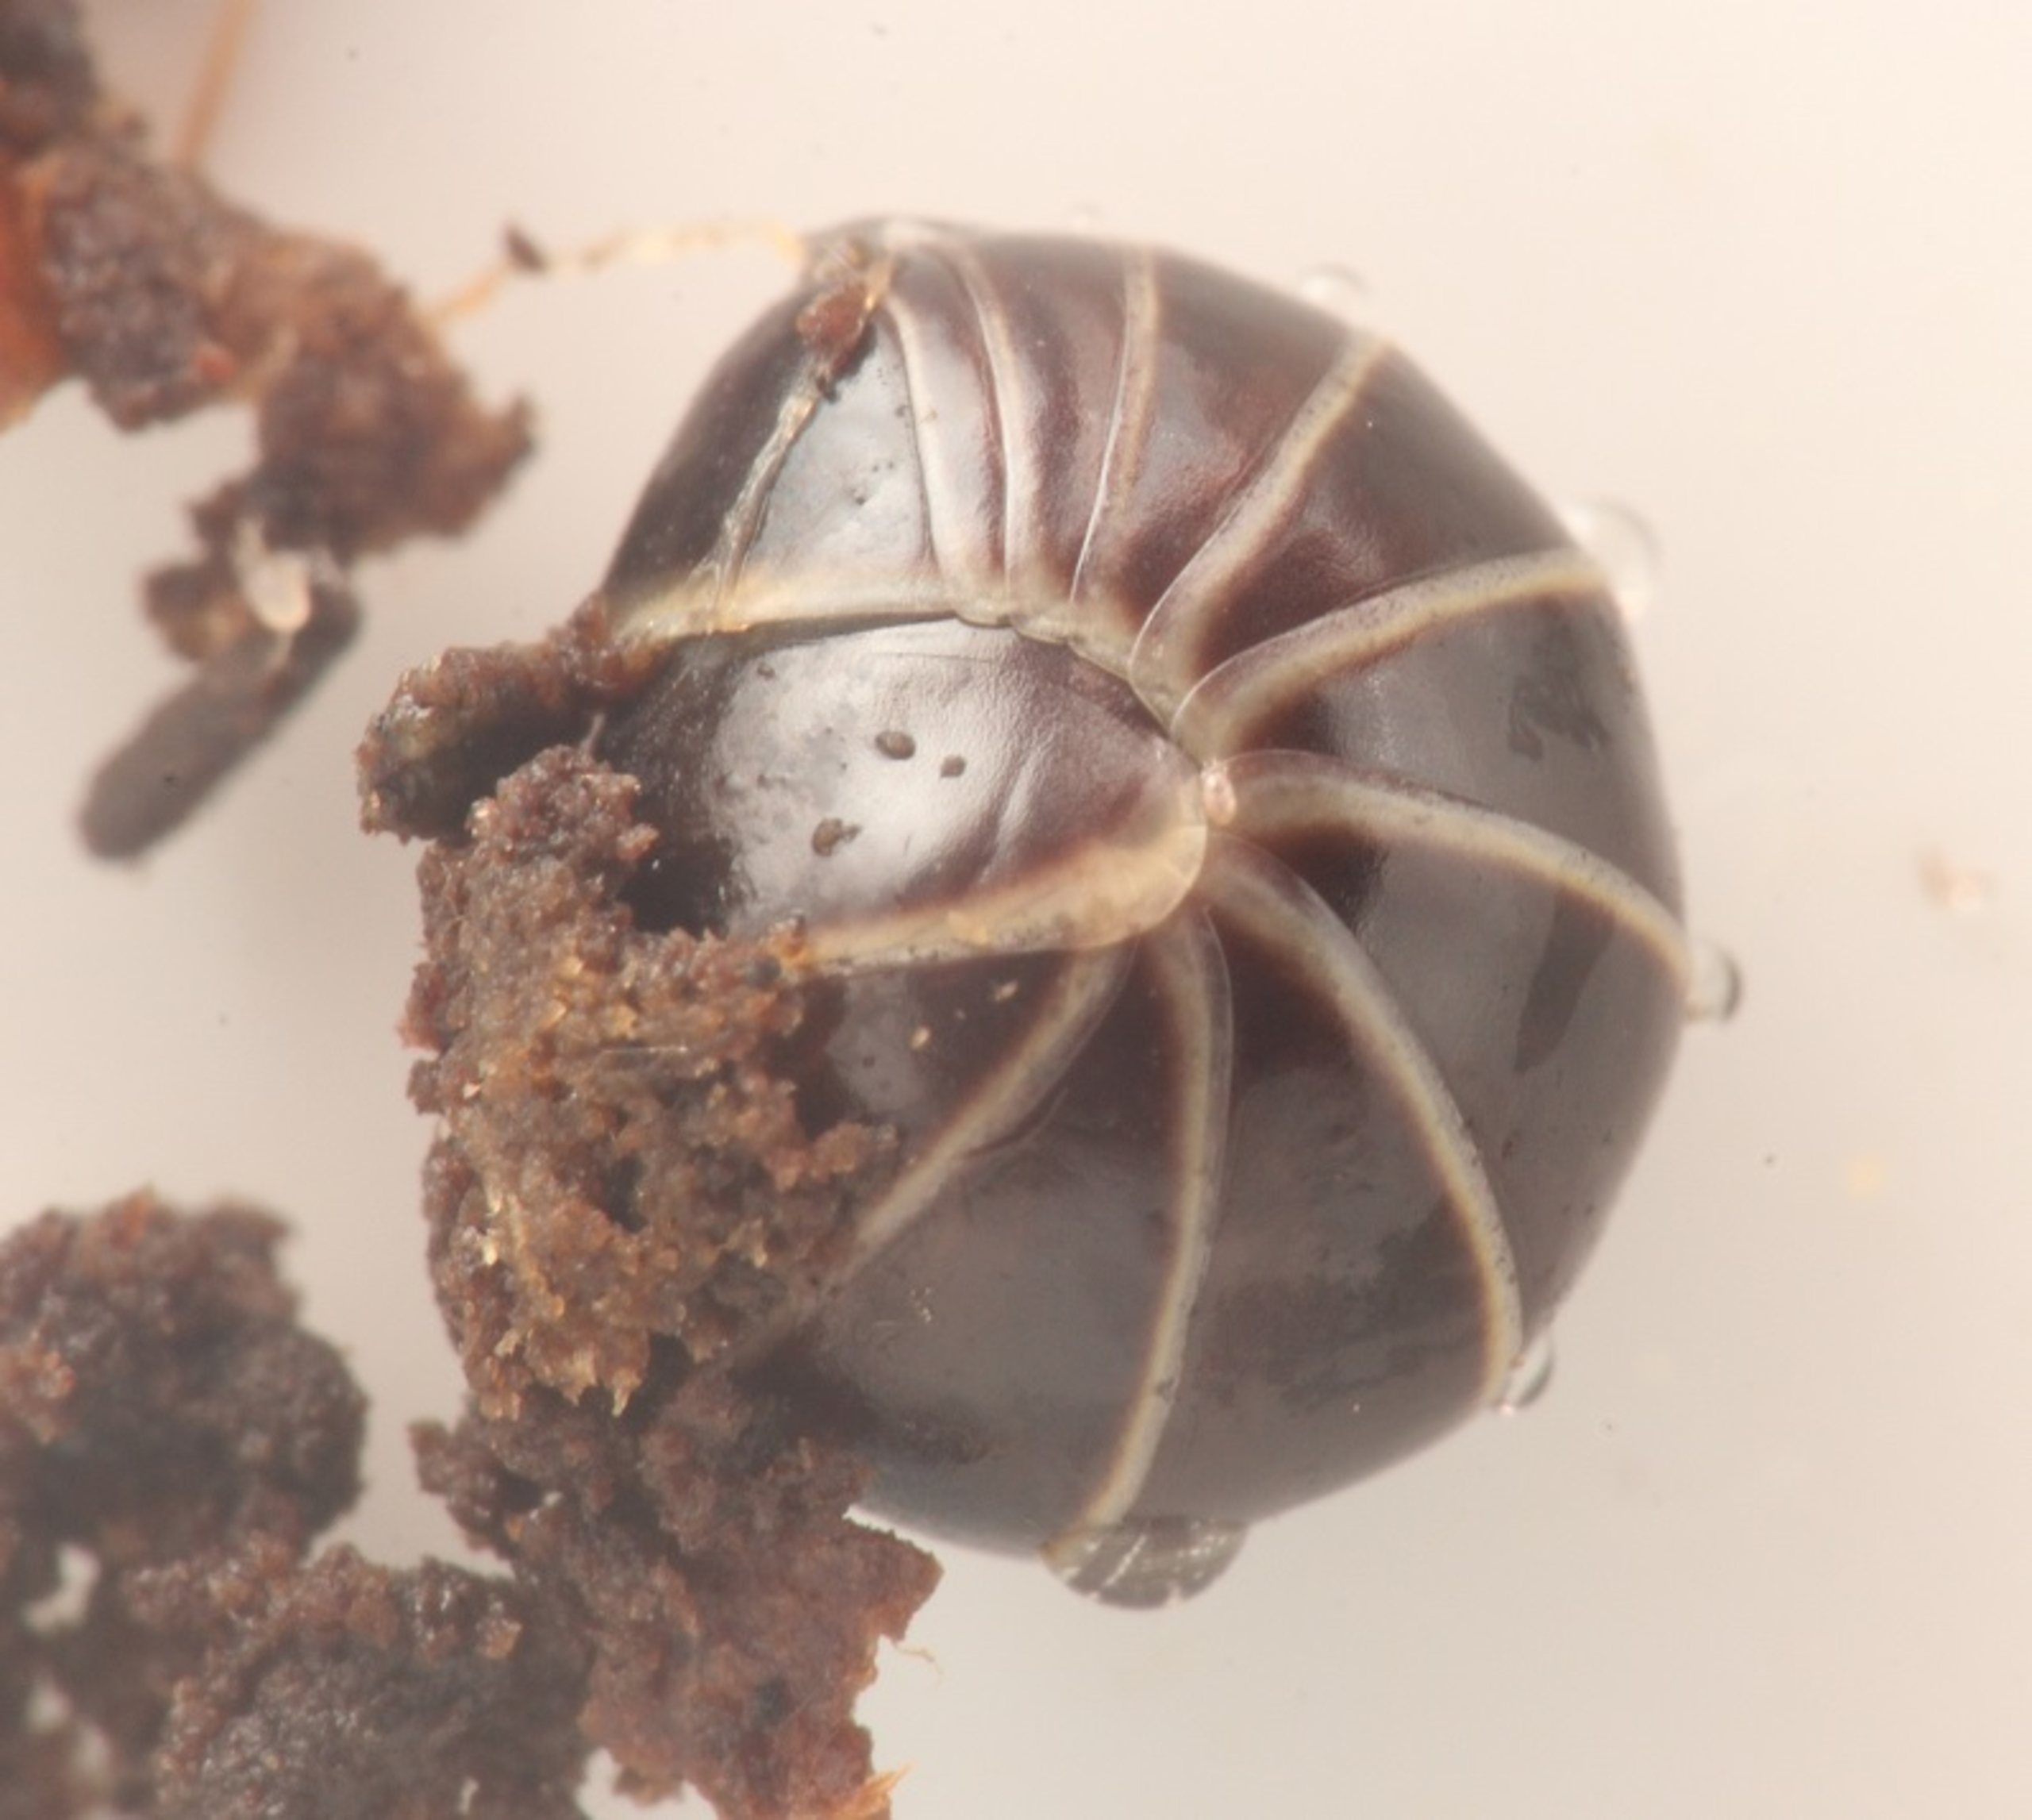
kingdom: Animalia
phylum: Arthropoda
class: Diplopoda
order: Glomerida
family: Glomeridae
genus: Glomeris
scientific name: Glomeris marginata
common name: Kugletusindben
